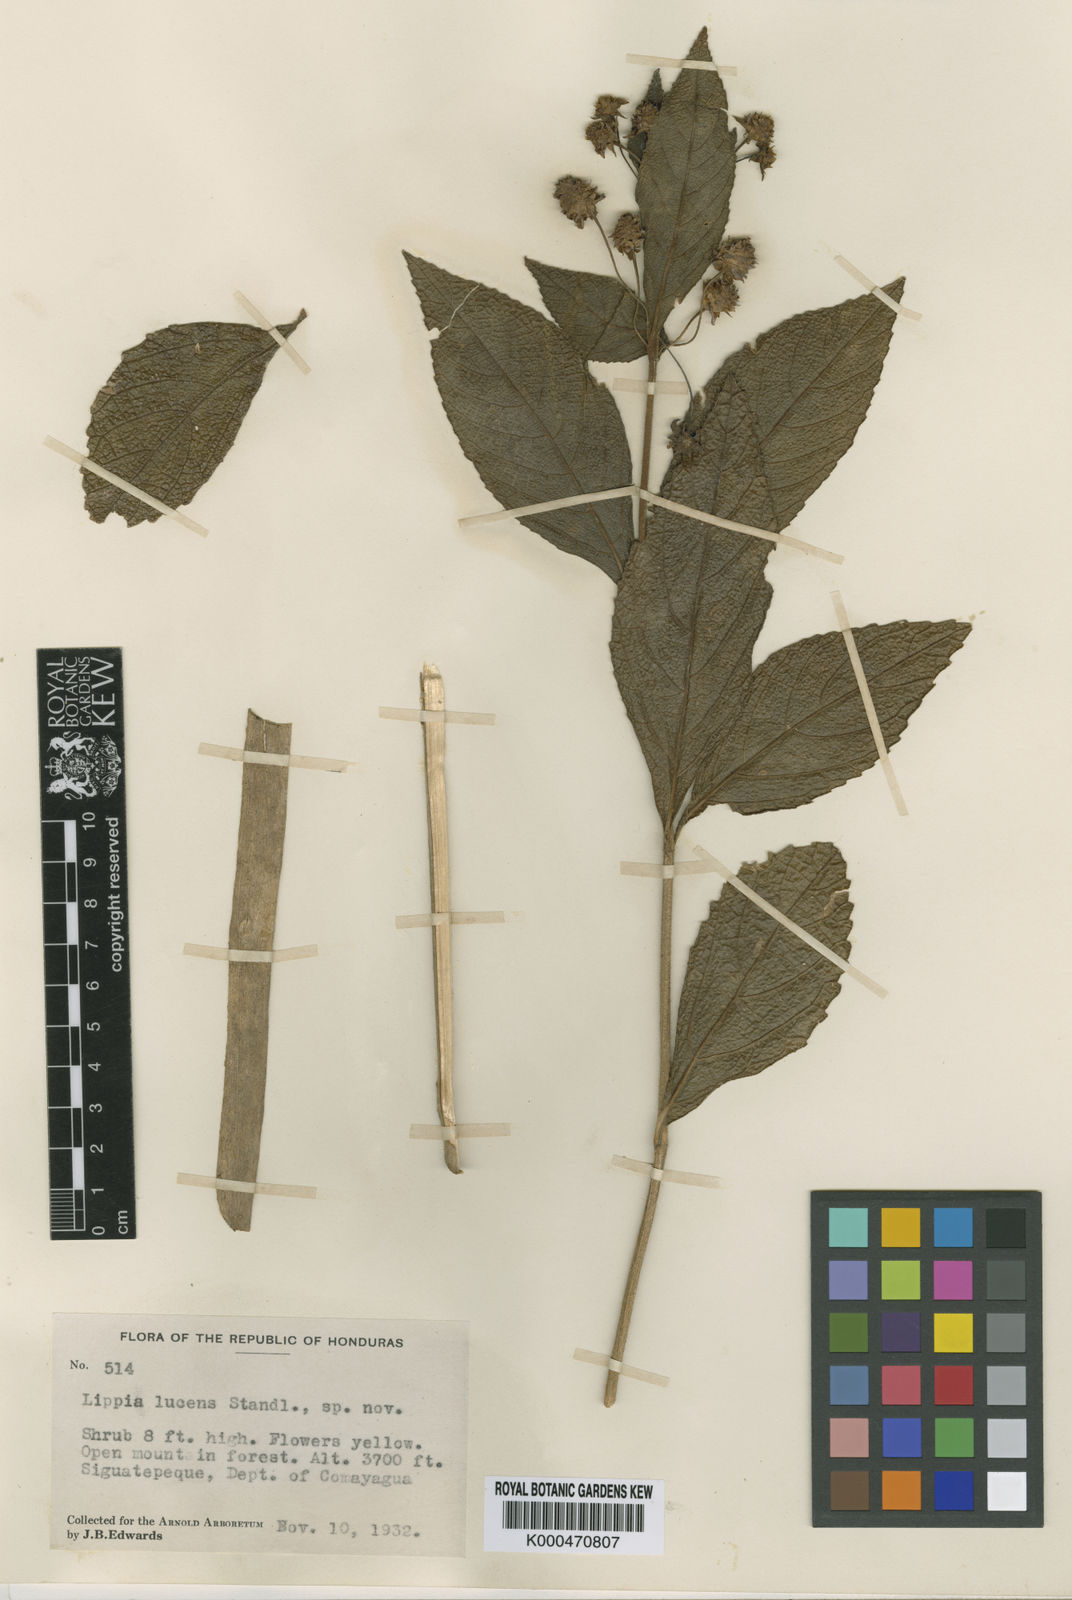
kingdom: Plantae
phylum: Tracheophyta
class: Magnoliopsida
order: Lamiales
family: Verbenaceae
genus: Lippia
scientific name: Lippia cardiostegia
